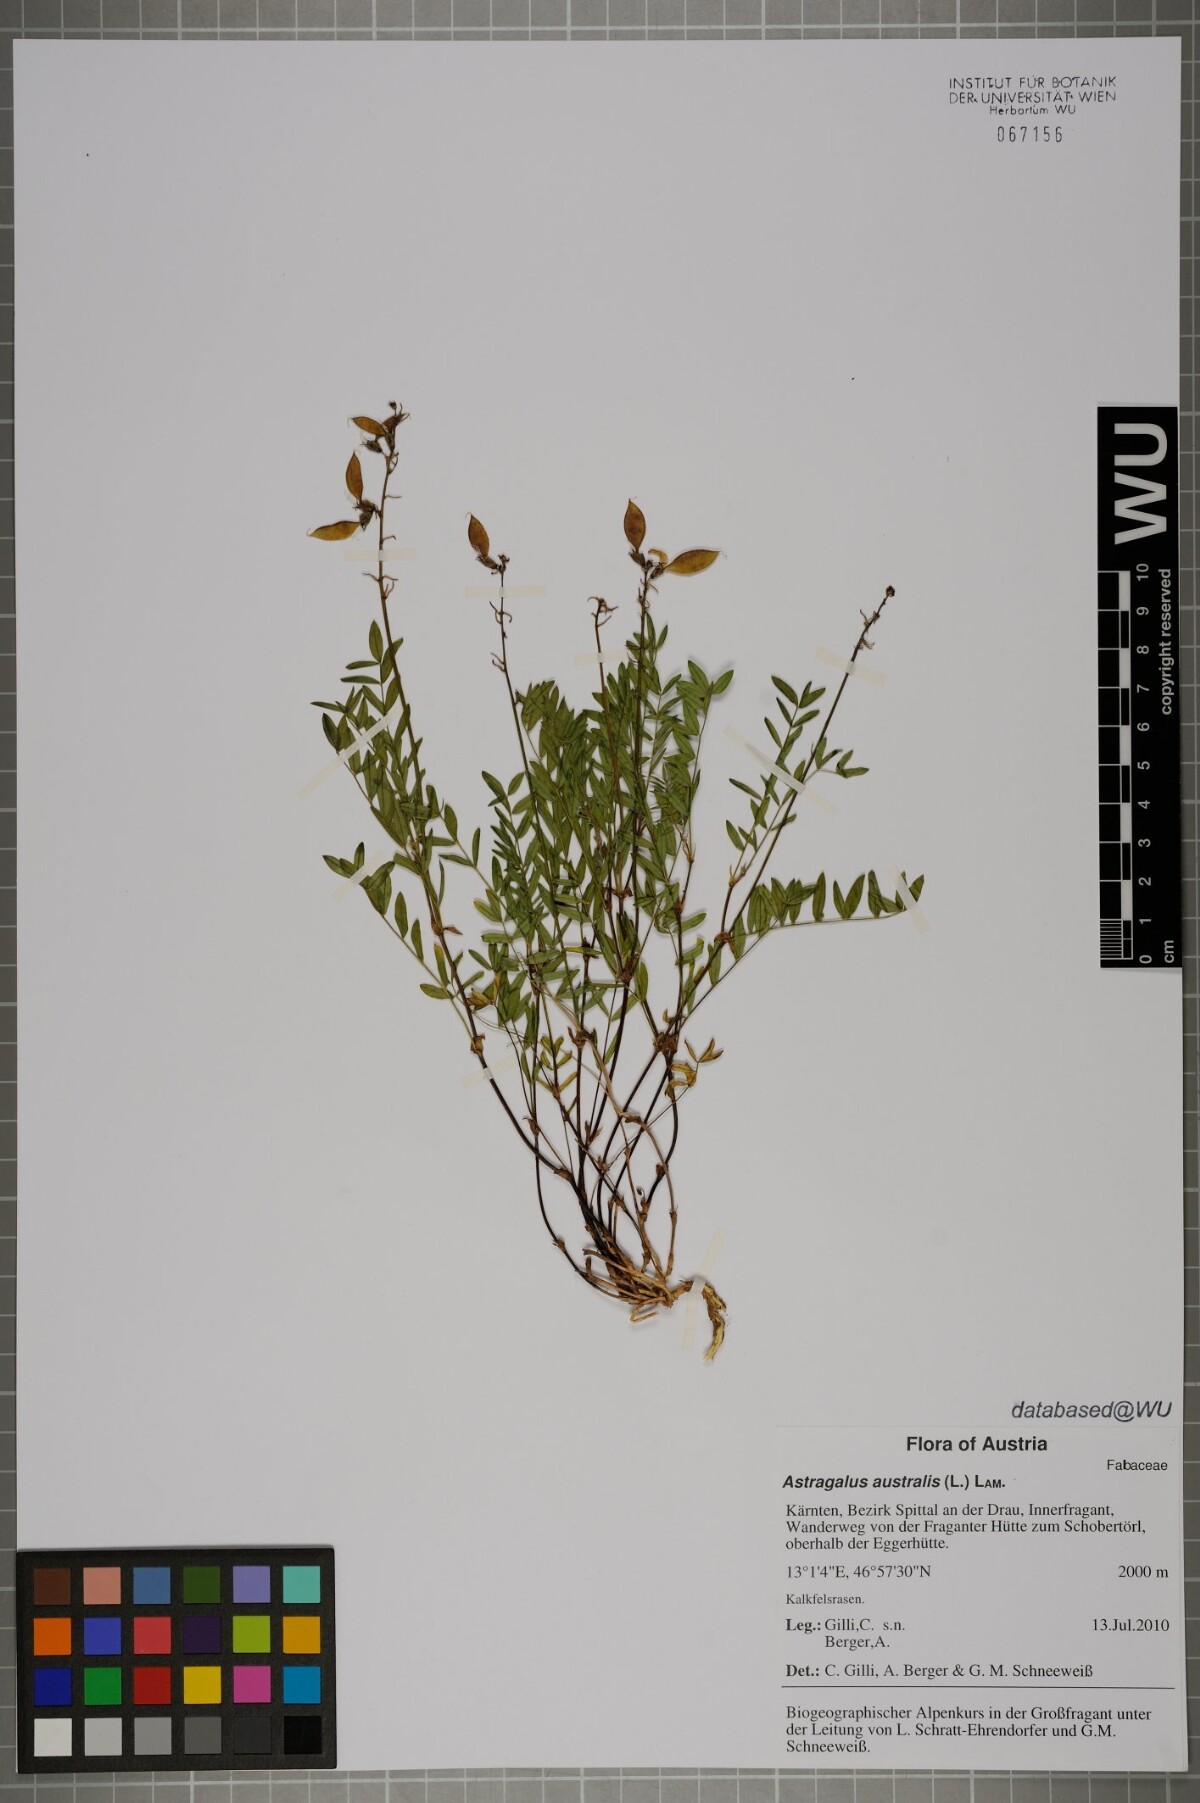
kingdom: Plantae
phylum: Tracheophyta
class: Magnoliopsida
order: Fabales
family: Fabaceae
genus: Astragalus
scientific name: Astragalus australis
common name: Indian milk-vetch
